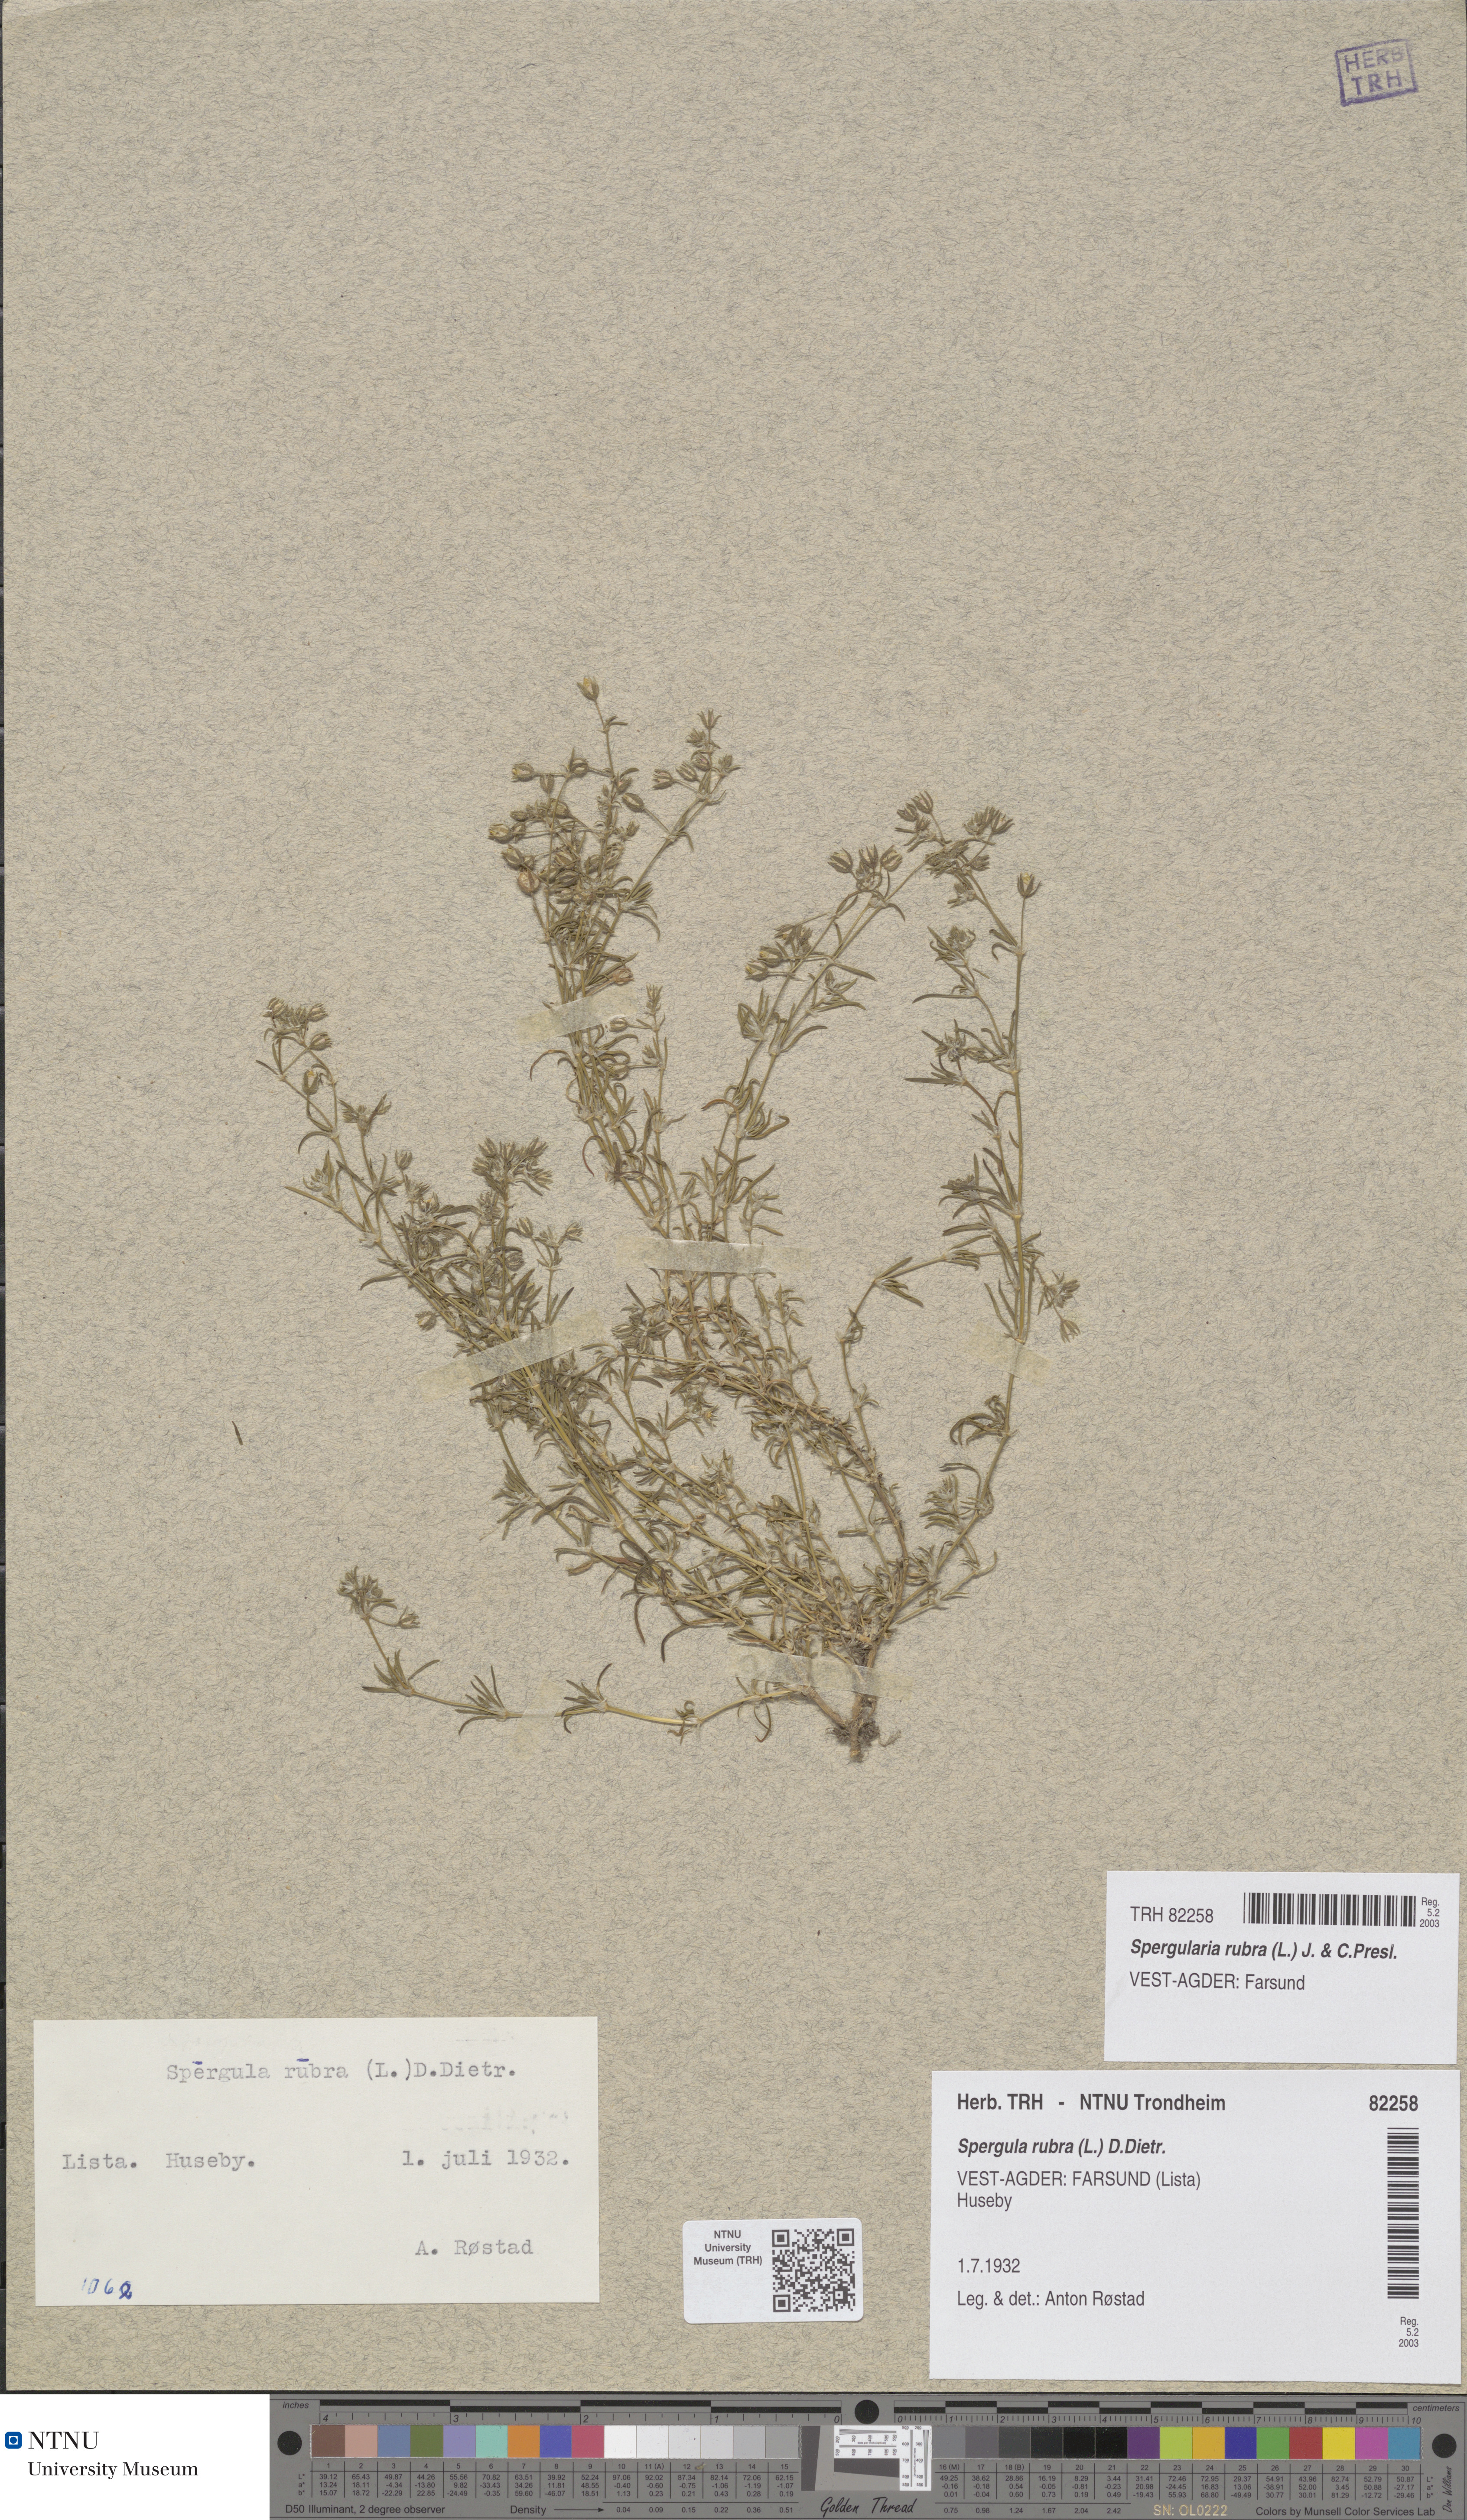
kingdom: Plantae
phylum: Tracheophyta
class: Magnoliopsida
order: Caryophyllales
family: Caryophyllaceae
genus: Spergularia
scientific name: Spergularia rubra
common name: Red sand-spurrey
